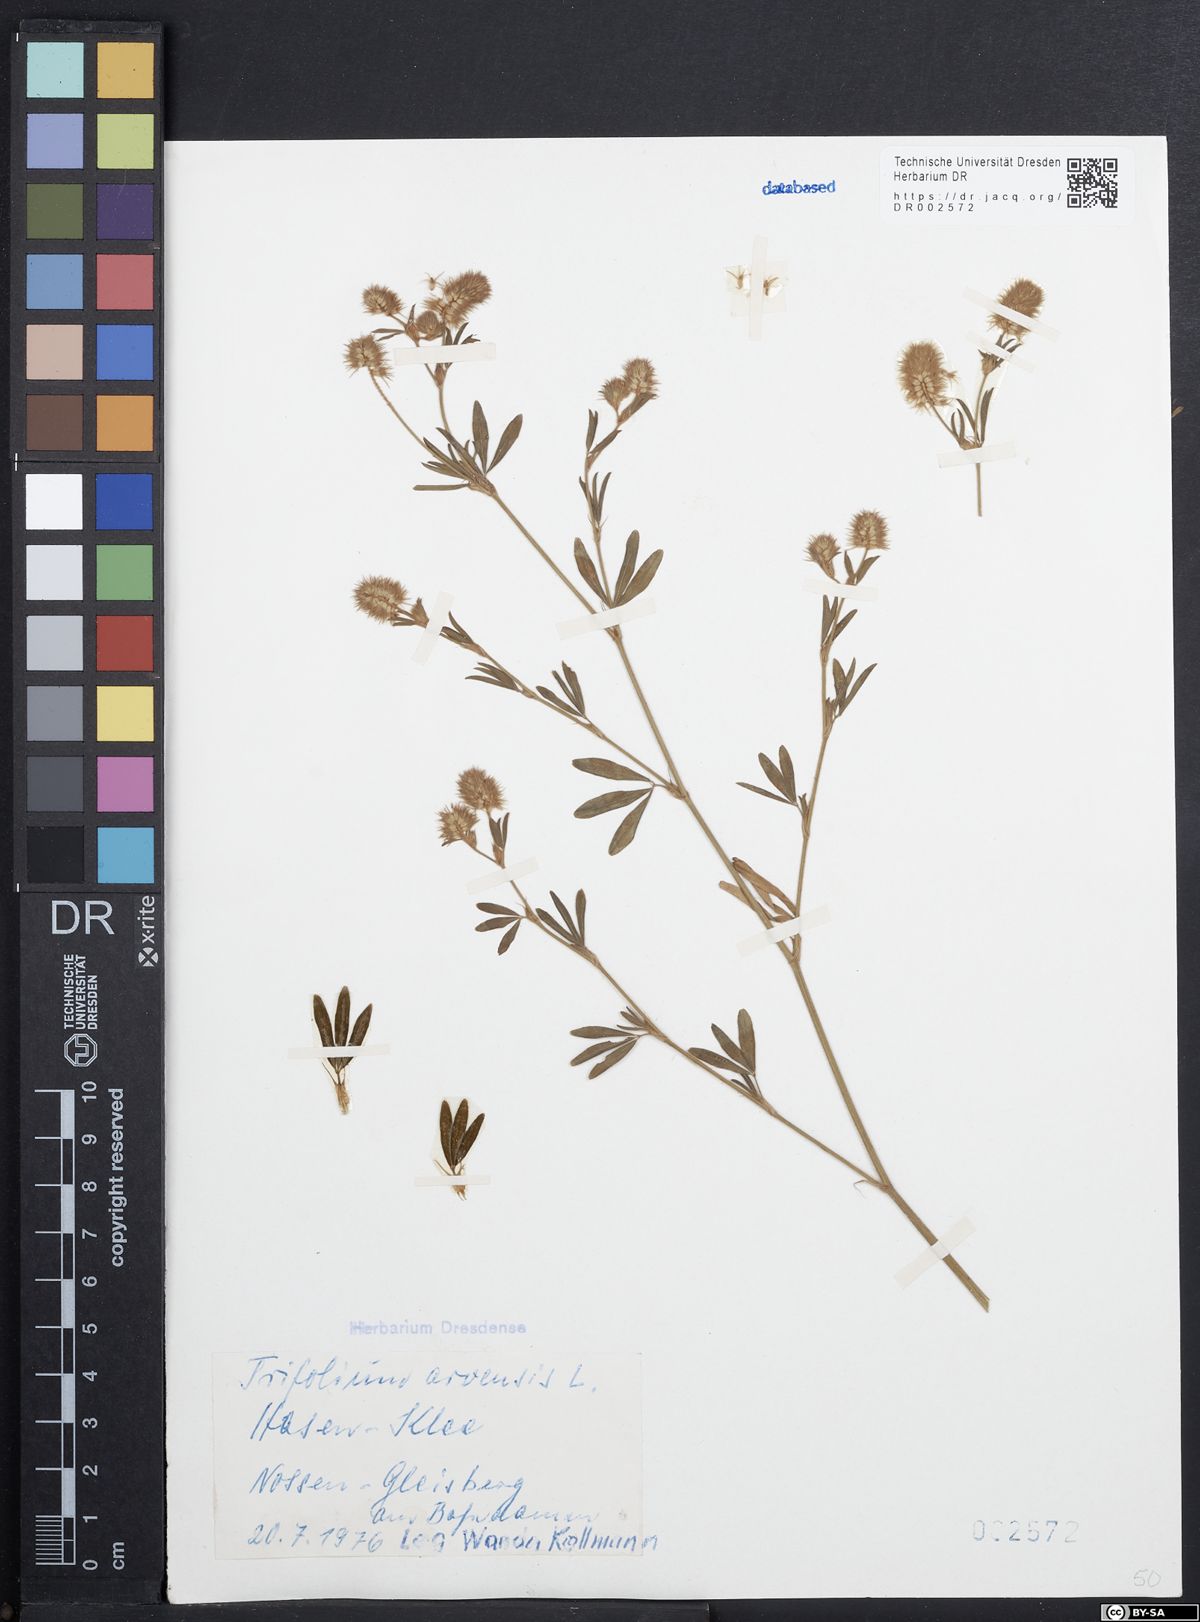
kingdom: Plantae
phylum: Tracheophyta
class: Magnoliopsida
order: Fabales
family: Fabaceae
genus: Trifolium
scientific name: Trifolium arvense
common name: Hare's-foot clover
